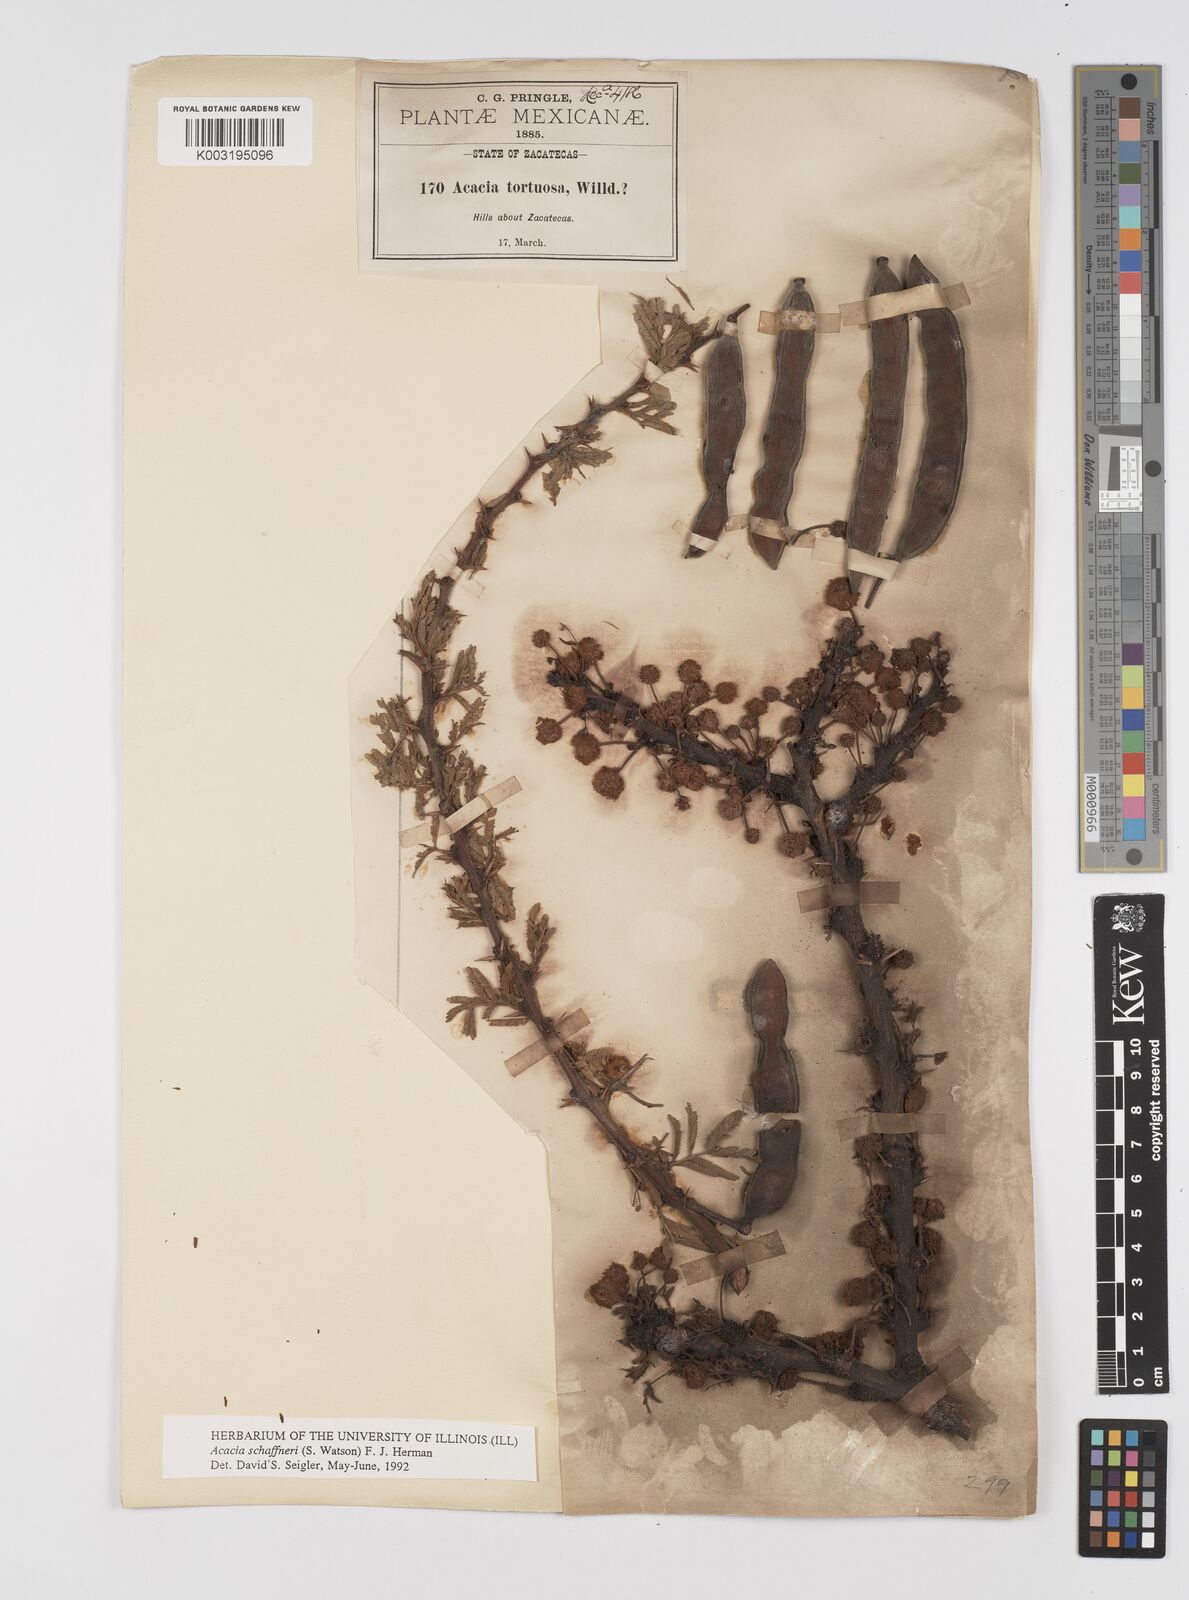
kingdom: Plantae
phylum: Tracheophyta
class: Magnoliopsida
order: Fabales
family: Fabaceae
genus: Vachellia
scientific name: Vachellia schaffneri
